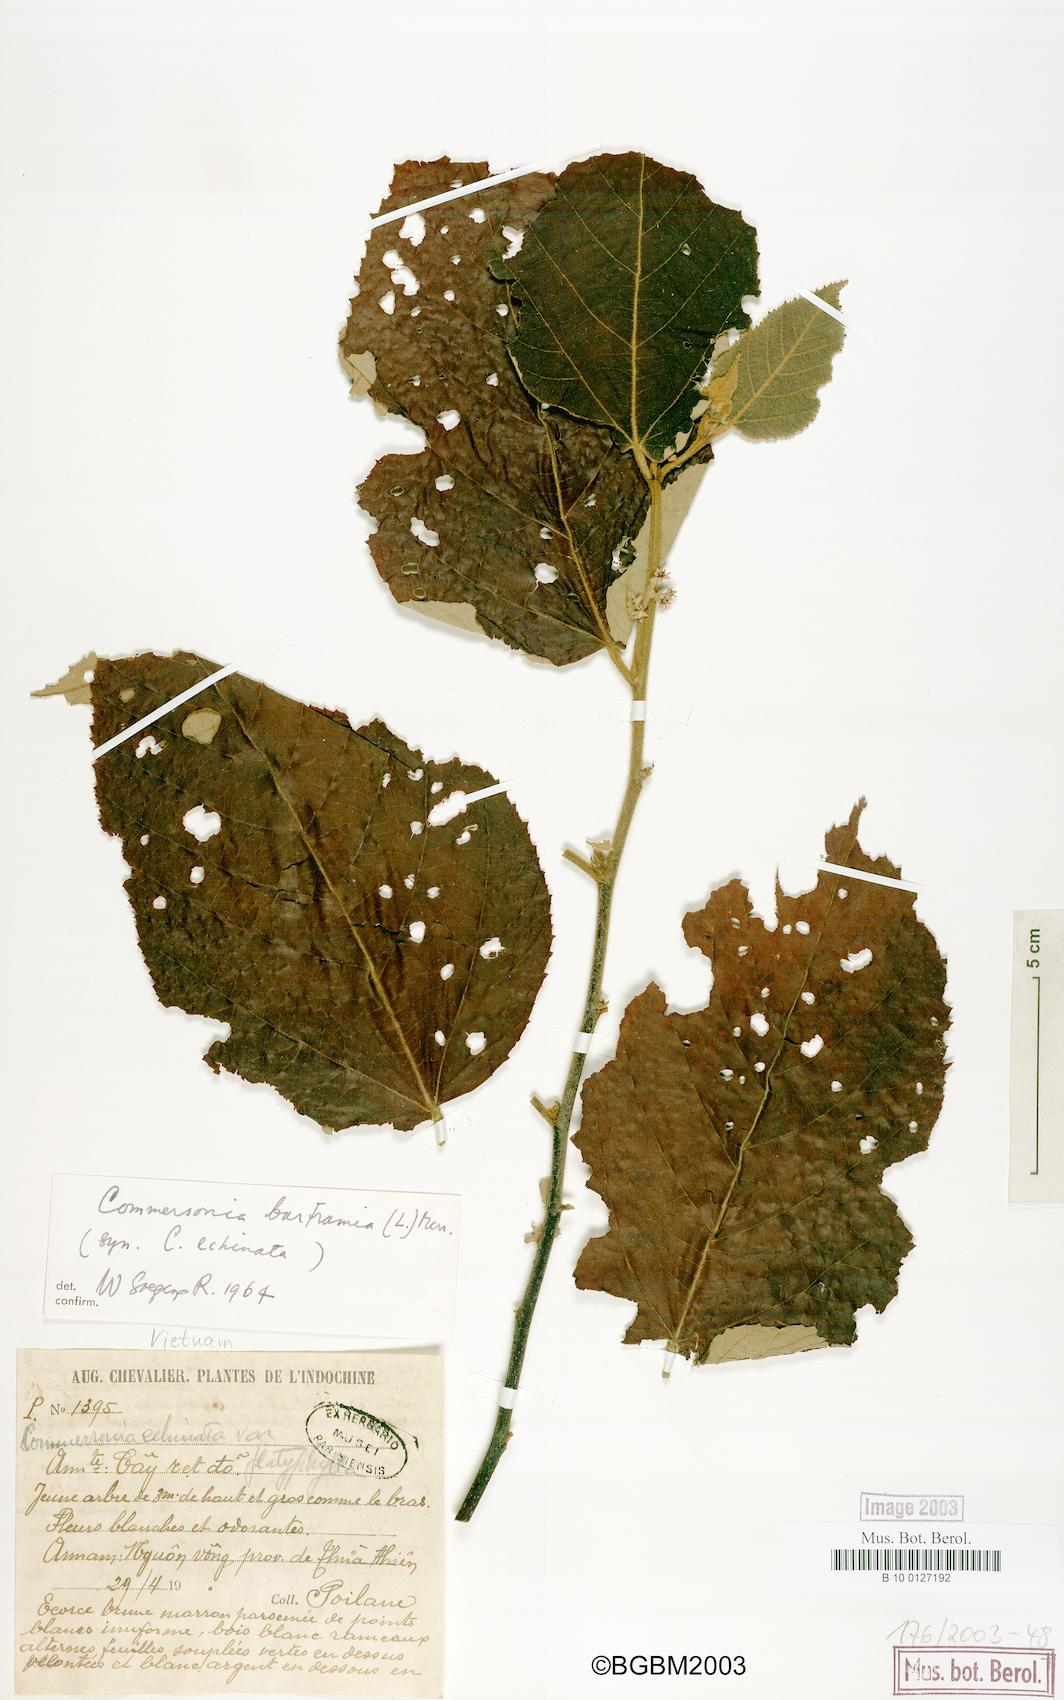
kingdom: Plantae
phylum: Tracheophyta
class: Magnoliopsida
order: Malvales
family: Malvaceae
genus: Commersonia
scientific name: Commersonia bartramia
